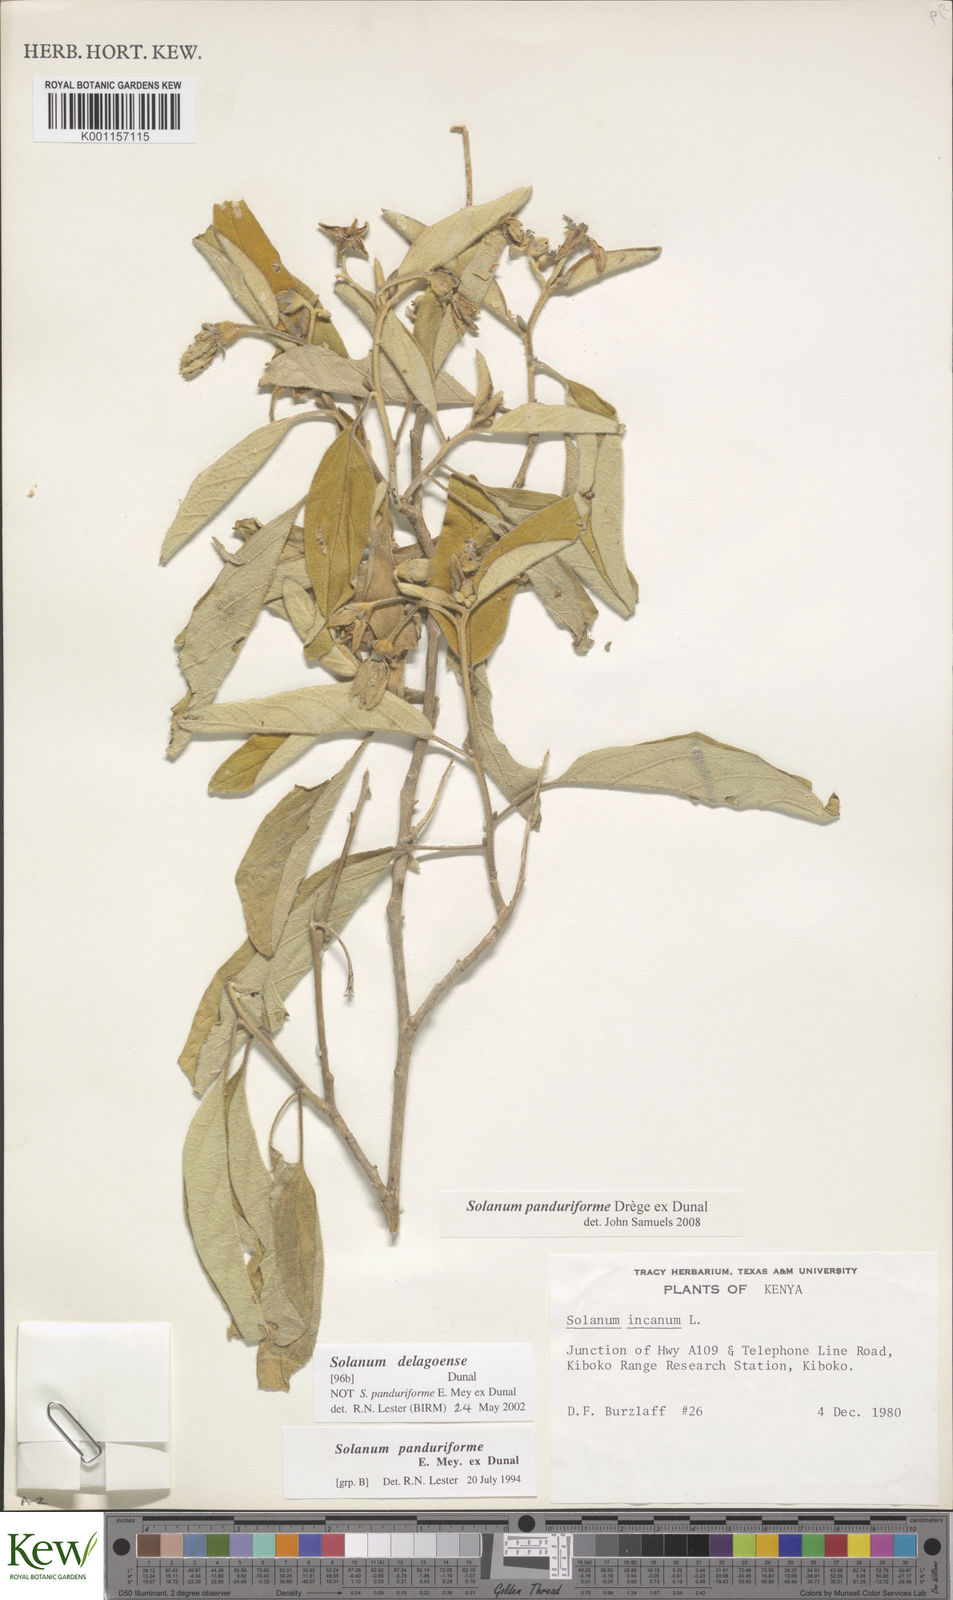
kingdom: Plantae
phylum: Tracheophyta
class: Magnoliopsida
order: Solanales
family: Solanaceae
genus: Solanum
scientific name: Solanum campylacanthum
